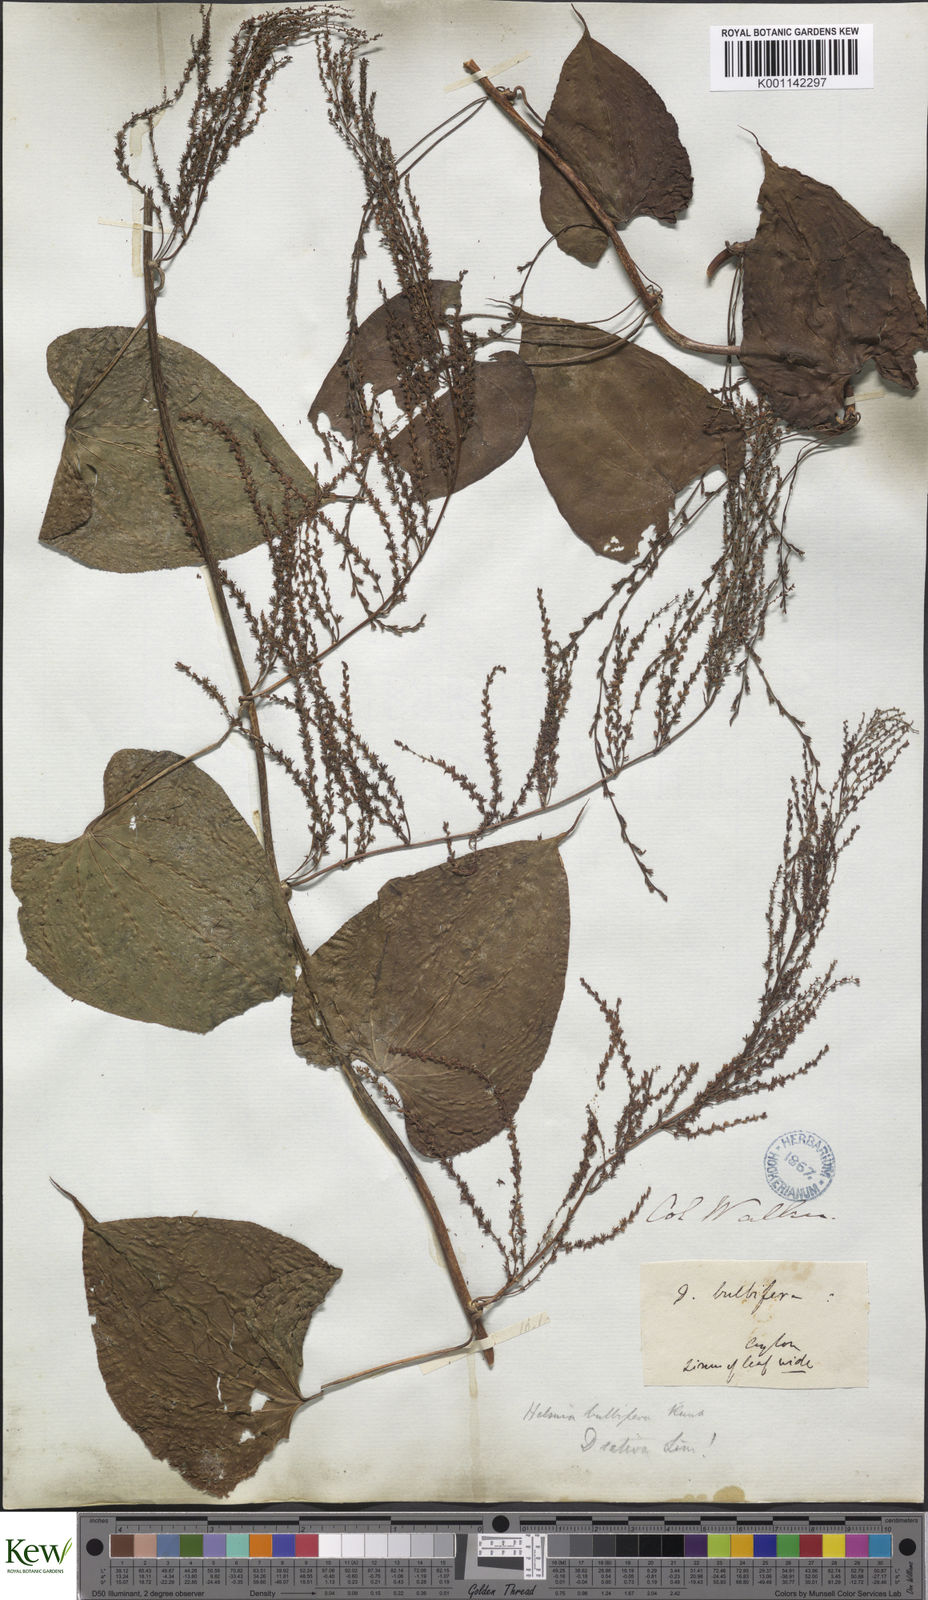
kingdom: Plantae
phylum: Tracheophyta
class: Liliopsida
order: Dioscoreales
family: Dioscoreaceae
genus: Dioscorea
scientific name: Dioscorea bulbifera
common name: Air yam
